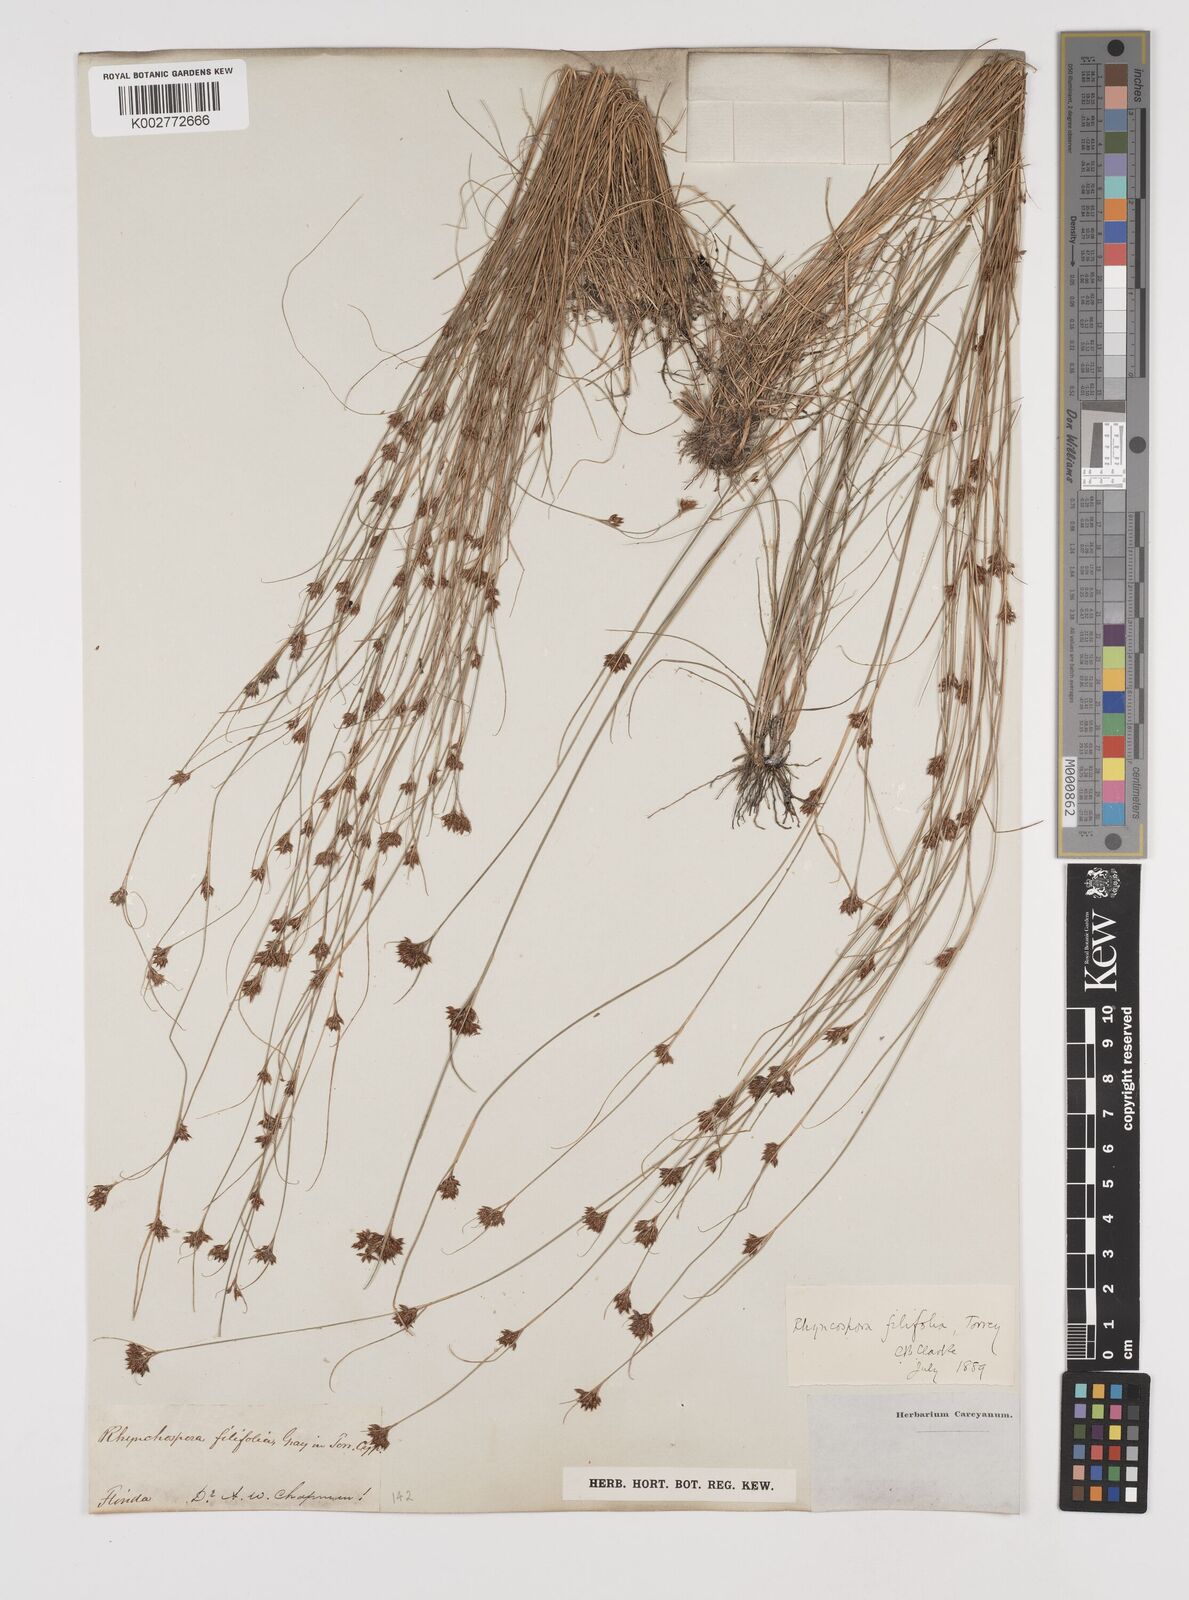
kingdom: Plantae
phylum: Tracheophyta
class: Liliopsida
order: Poales
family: Cyperaceae
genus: Rhynchospora
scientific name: Rhynchospora filifolia
